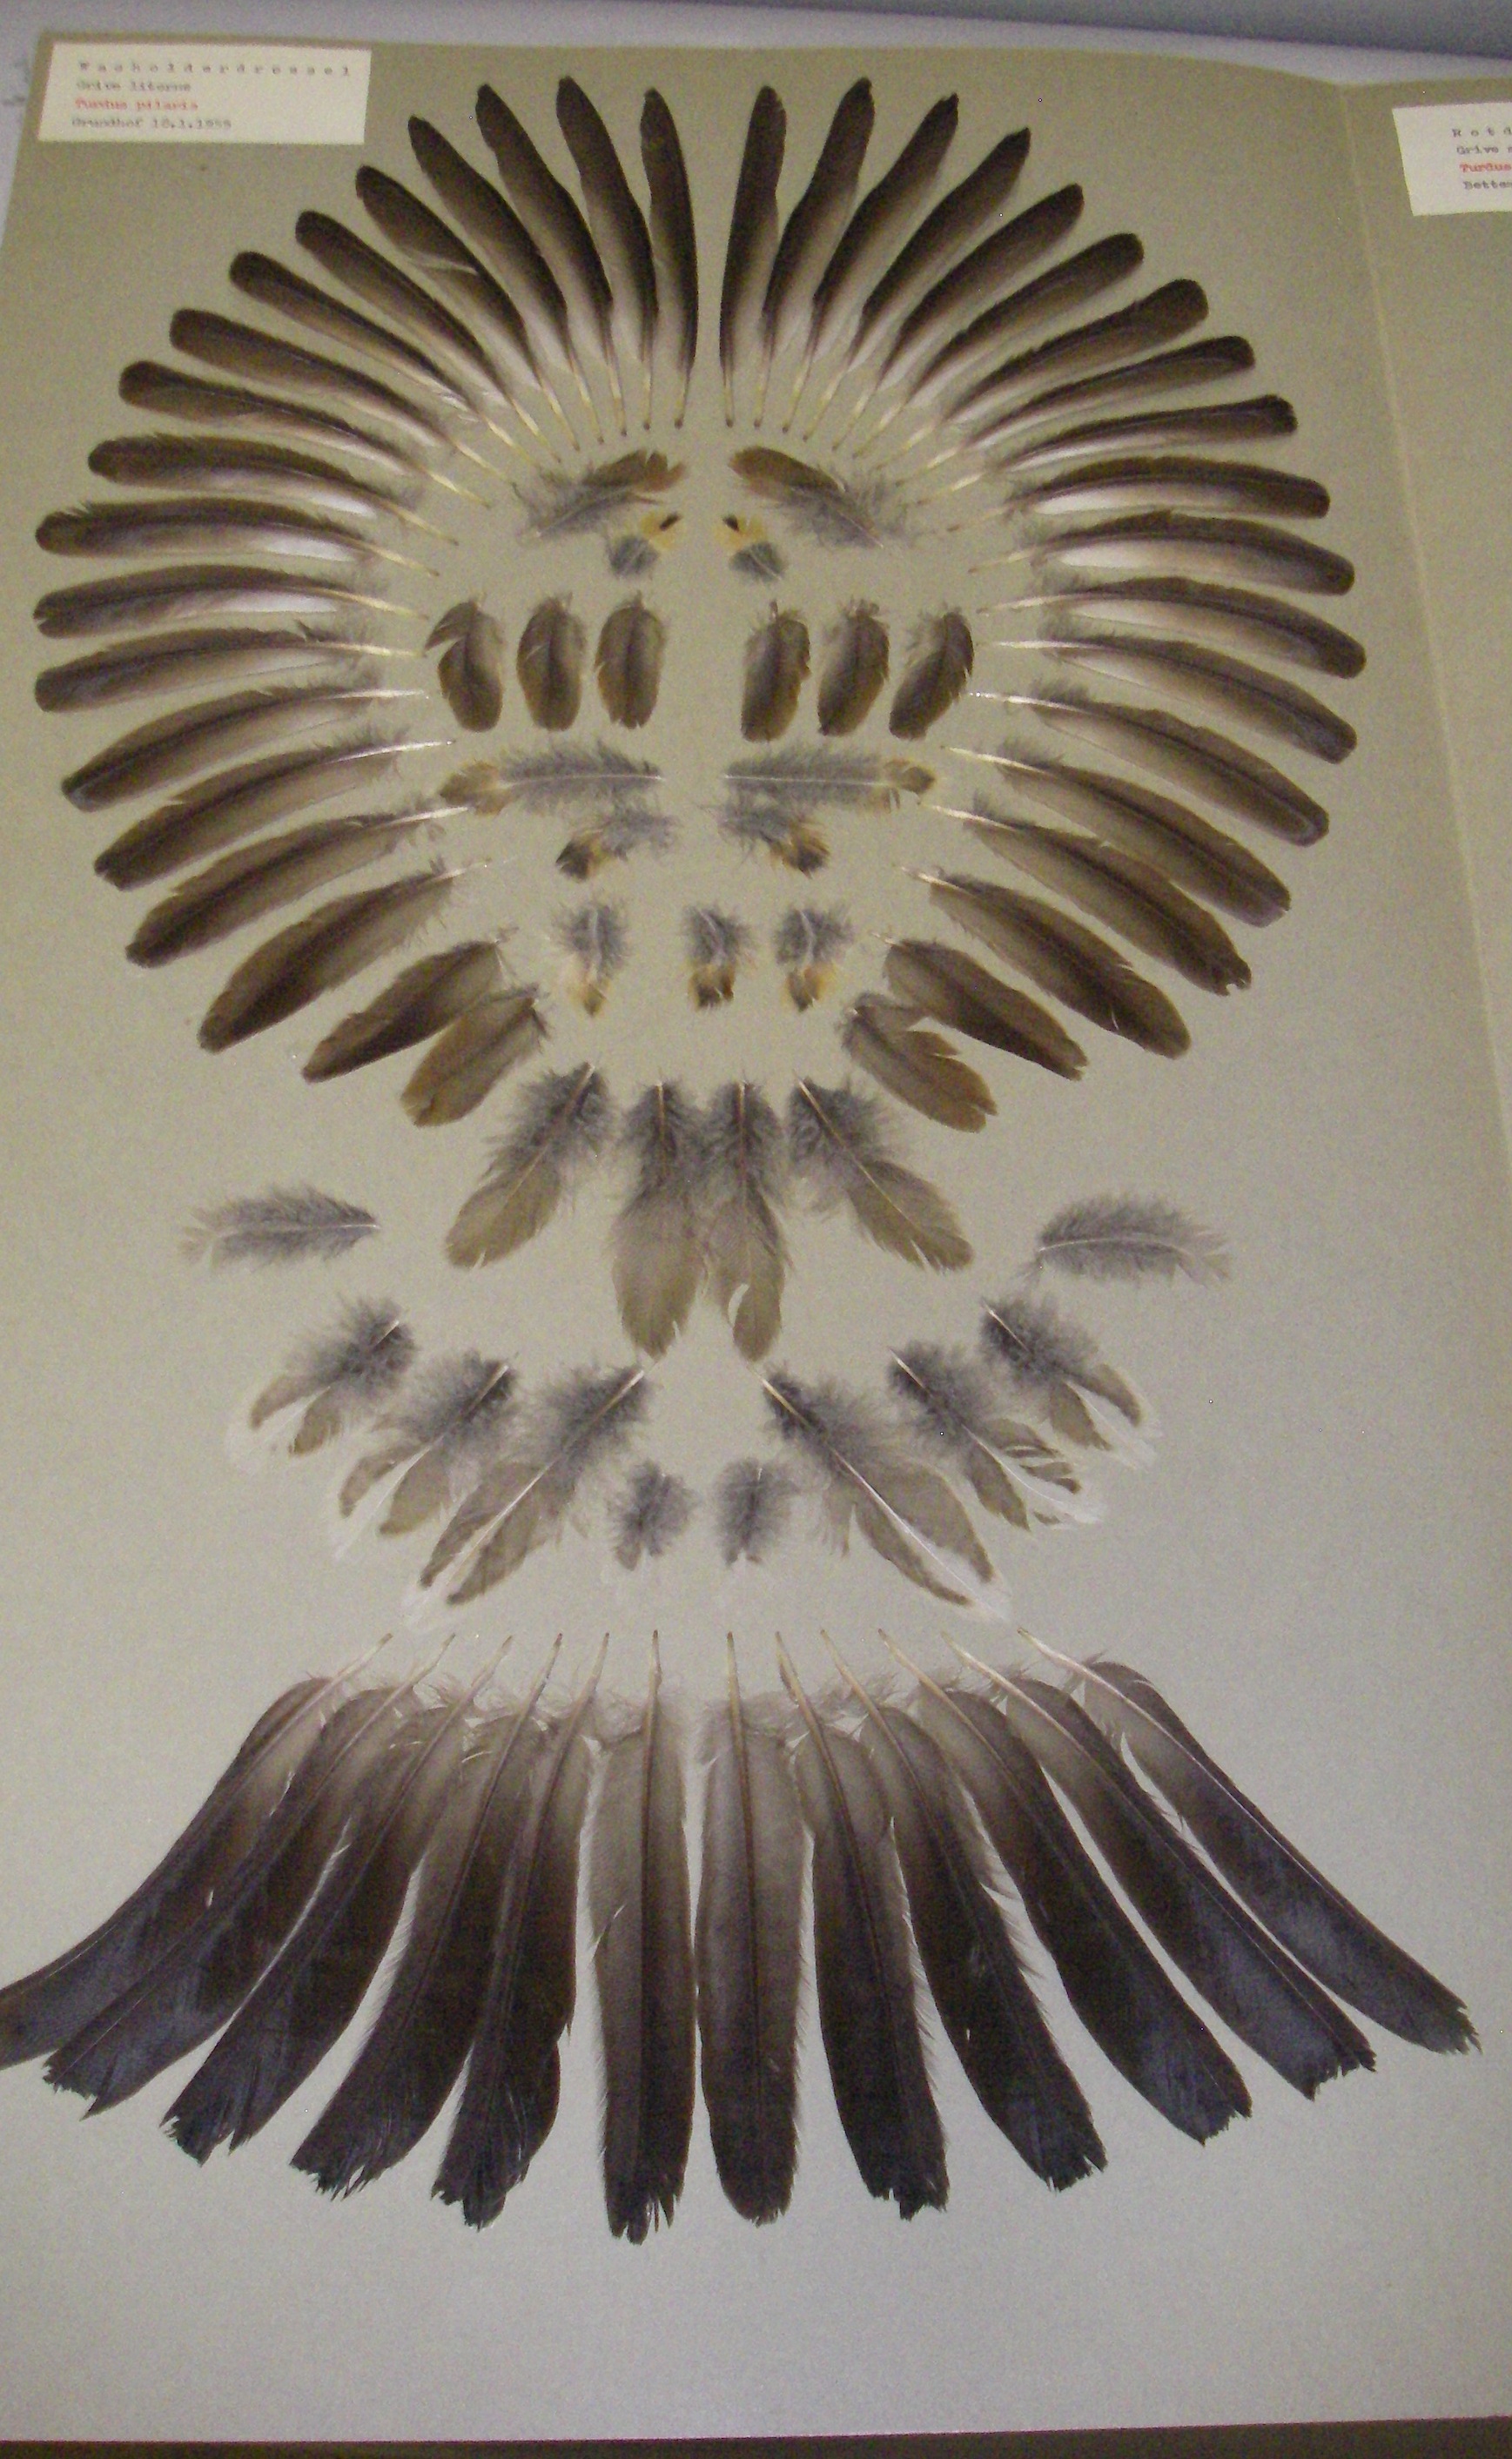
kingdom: Animalia
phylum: Chordata
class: Aves
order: Passeriformes
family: Turdidae
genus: Turdus
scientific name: Turdus pilaris
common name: Fieldfare
